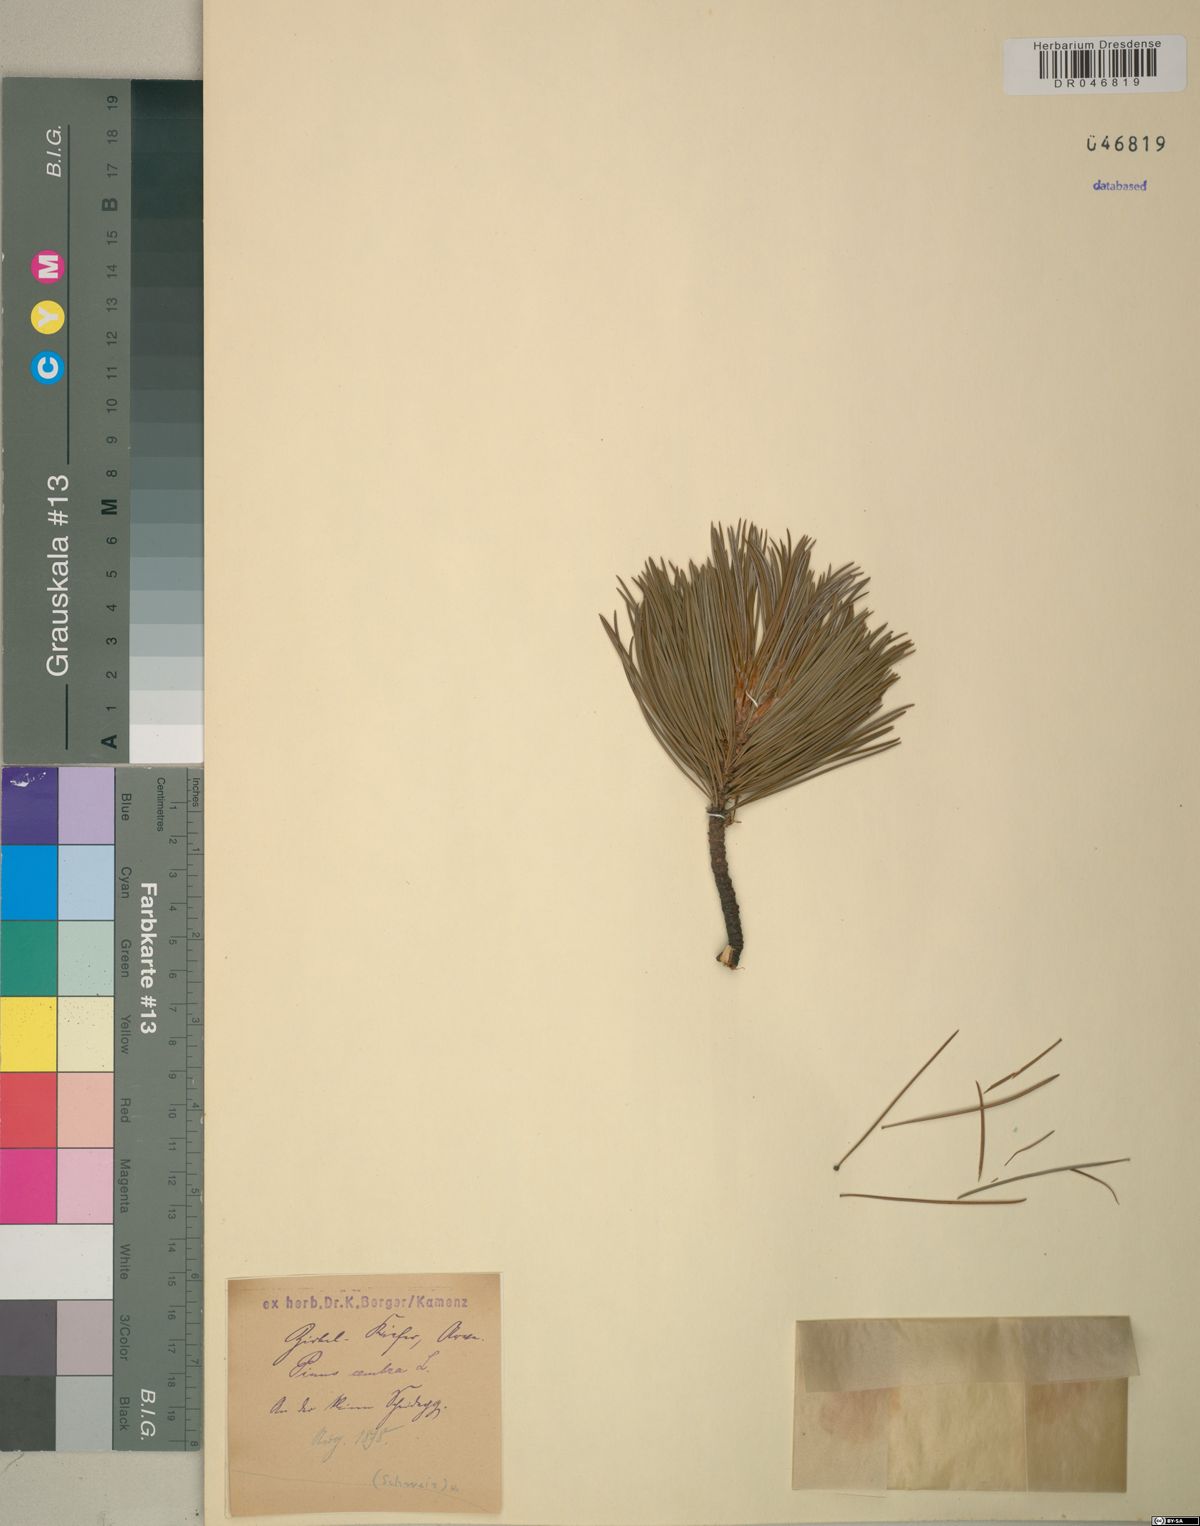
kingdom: Plantae
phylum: Tracheophyta
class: Pinopsida
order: Pinales
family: Pinaceae
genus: Pinus
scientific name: Pinus cembra
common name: Arolla pine
